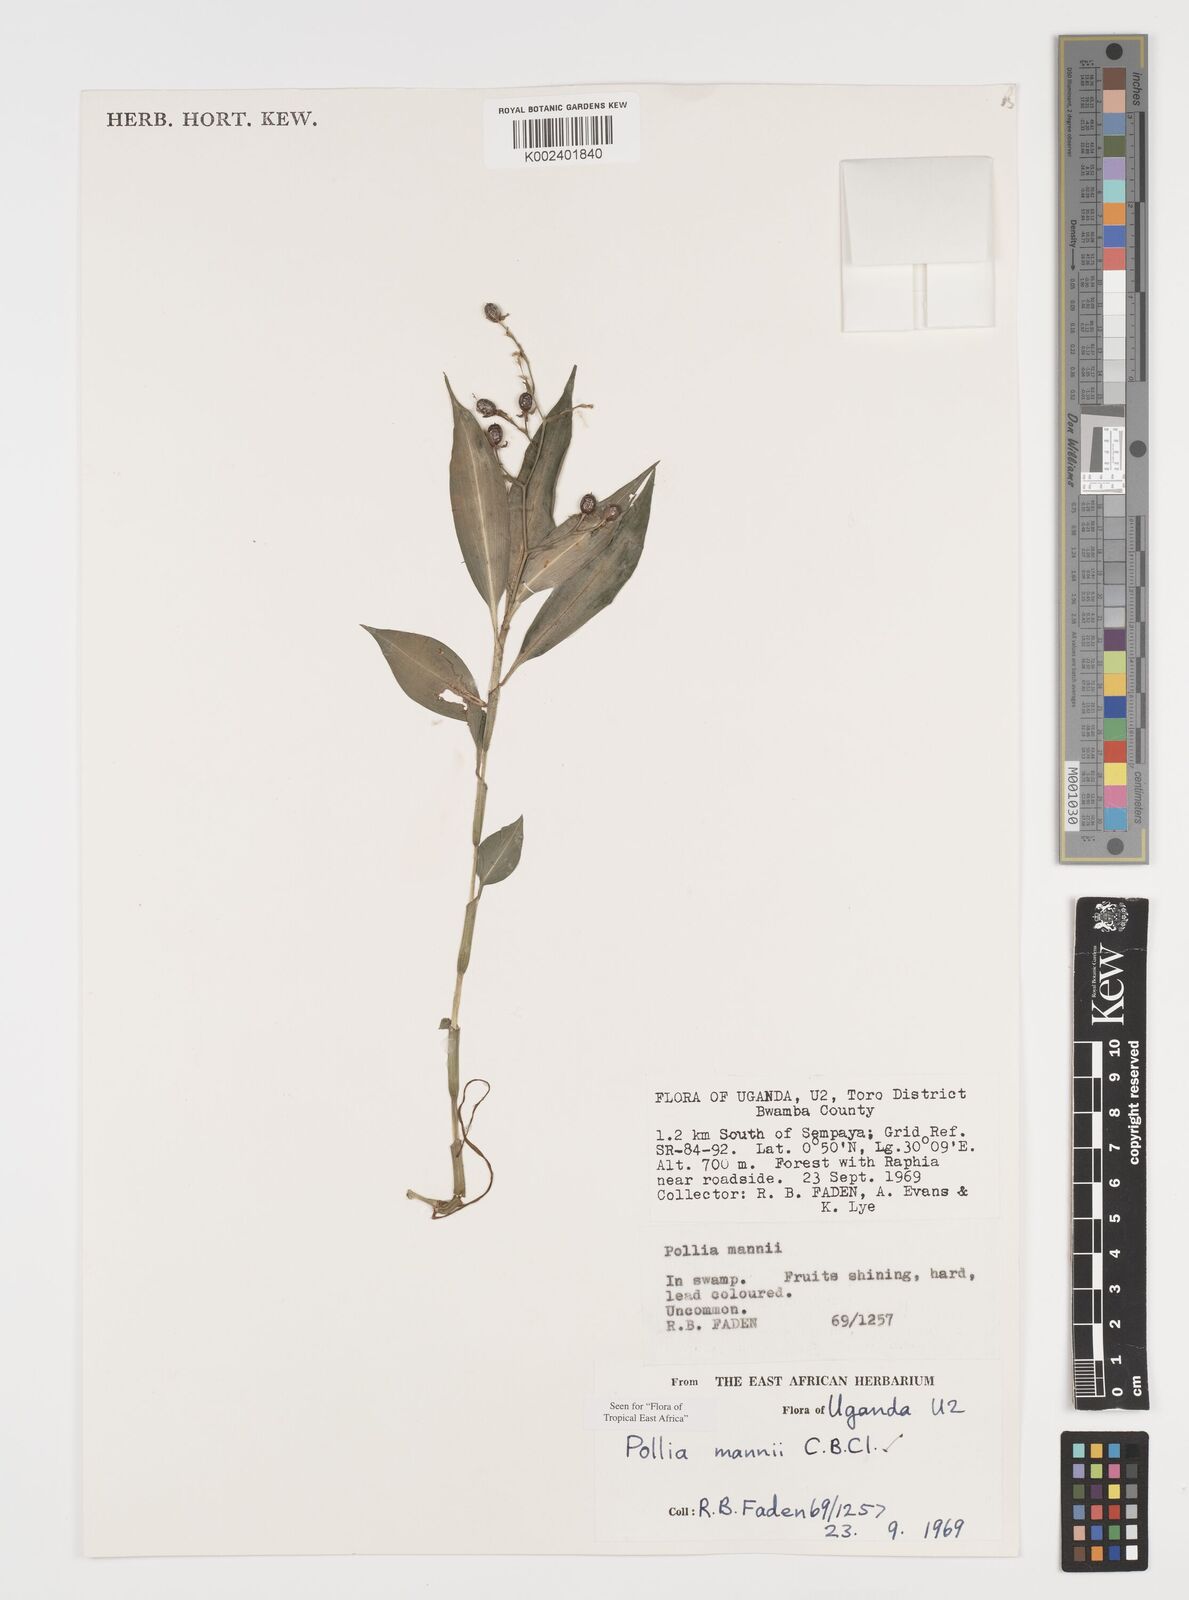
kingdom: Plantae
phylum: Tracheophyta
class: Liliopsida
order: Commelinales
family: Commelinaceae
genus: Pollia
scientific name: Pollia mannii
